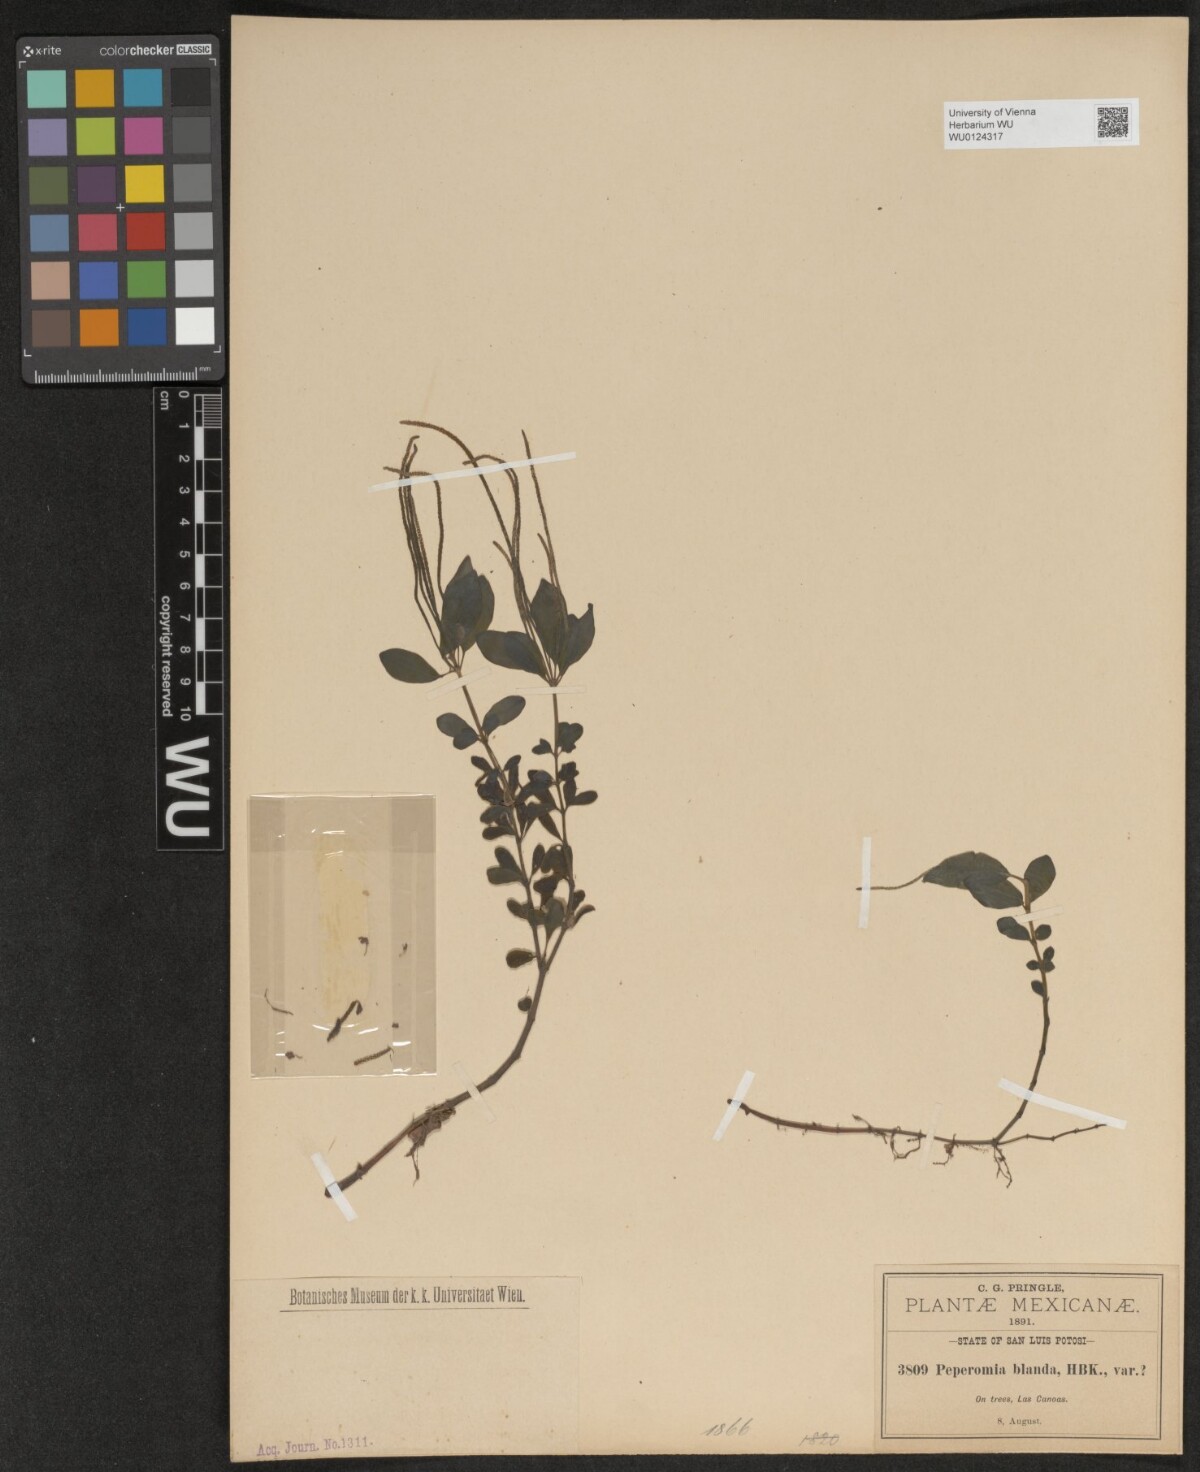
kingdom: Plantae
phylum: Tracheophyta
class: Magnoliopsida
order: Piperales
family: Piperaceae
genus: Peperomia
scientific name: Peperomia blanda
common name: Arid-land peperomia
